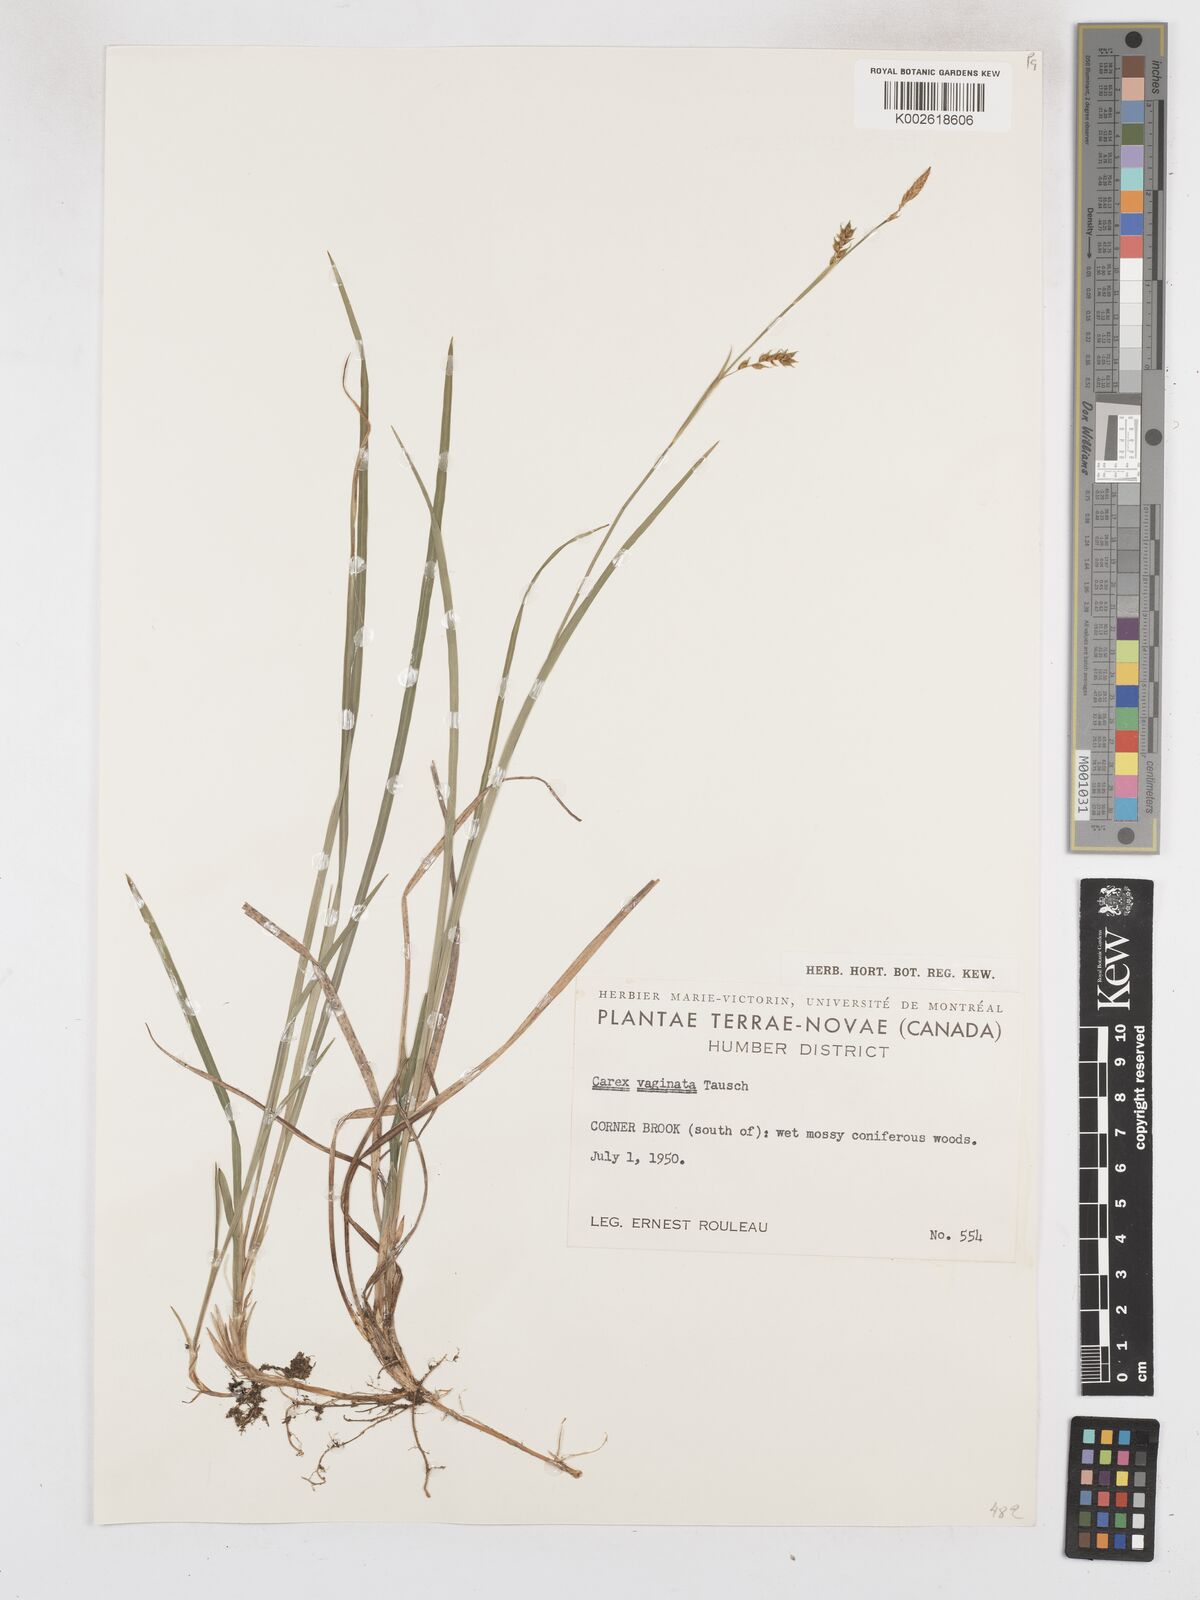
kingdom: Plantae
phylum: Tracheophyta
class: Liliopsida
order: Poales
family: Cyperaceae
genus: Carex
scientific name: Carex vaginata
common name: Sheathed sedge
